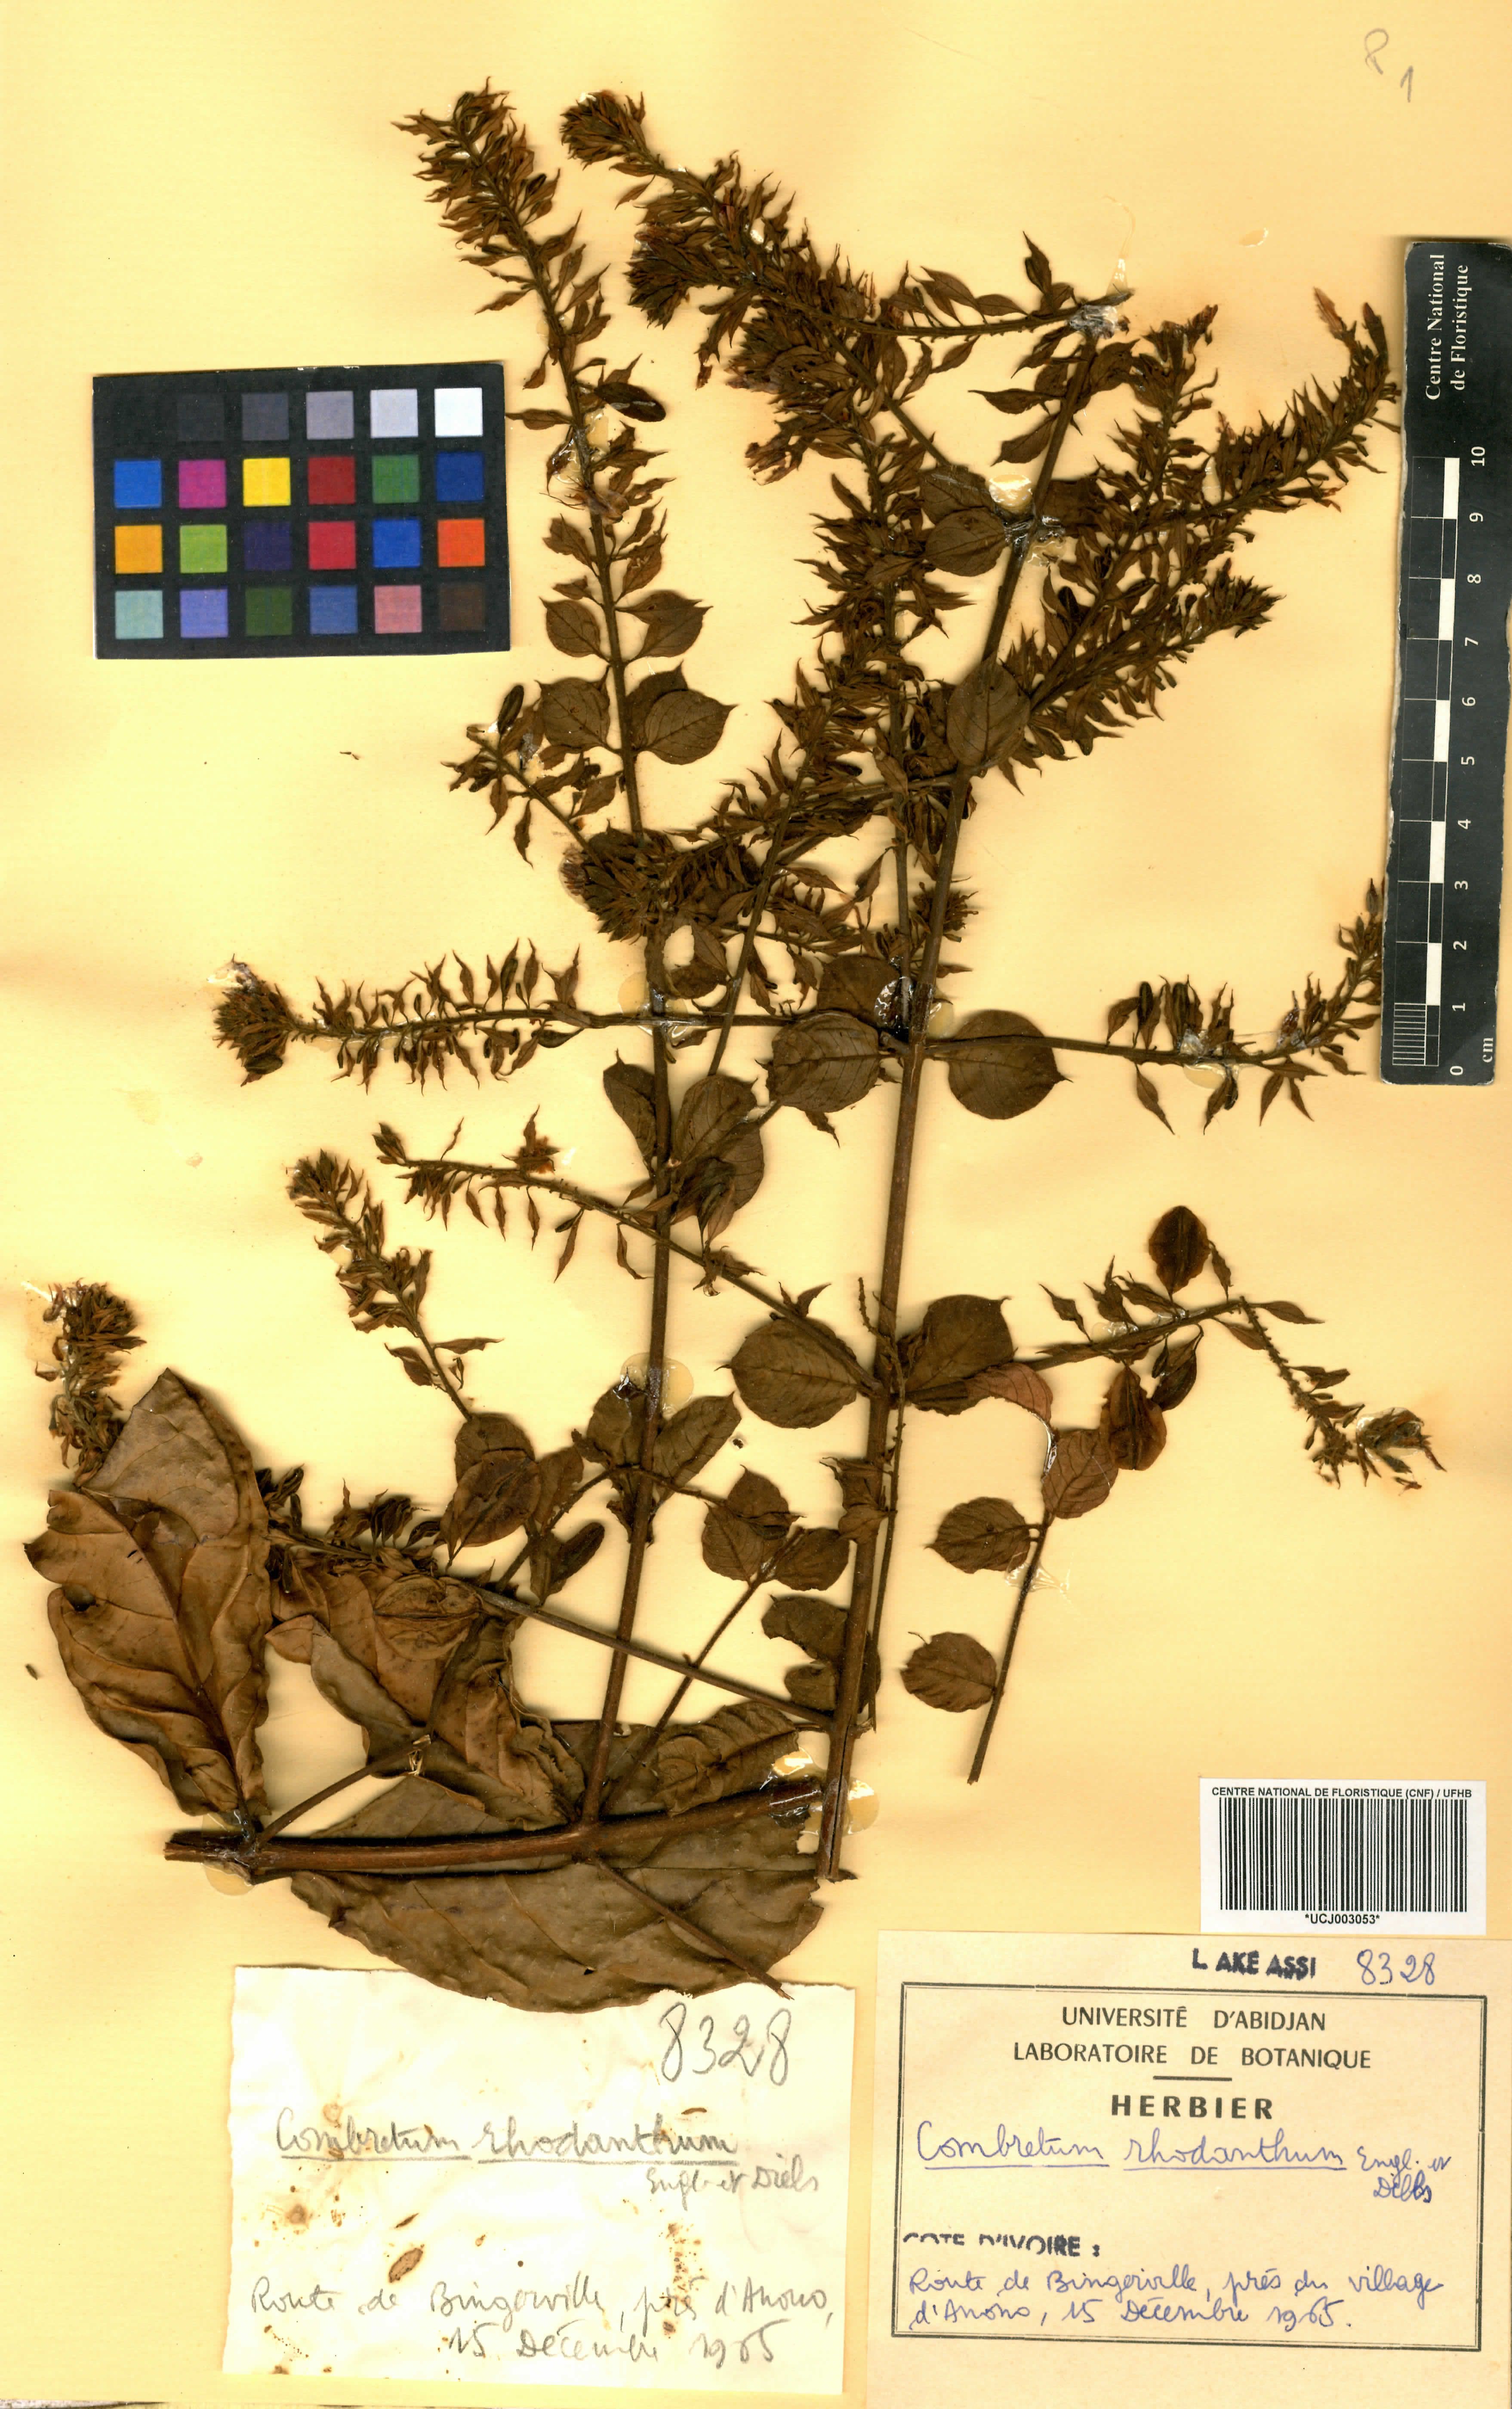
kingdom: Plantae
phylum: Tracheophyta
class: Magnoliopsida
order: Myrtales
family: Combretaceae
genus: Combretum
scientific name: Combretum comosum
